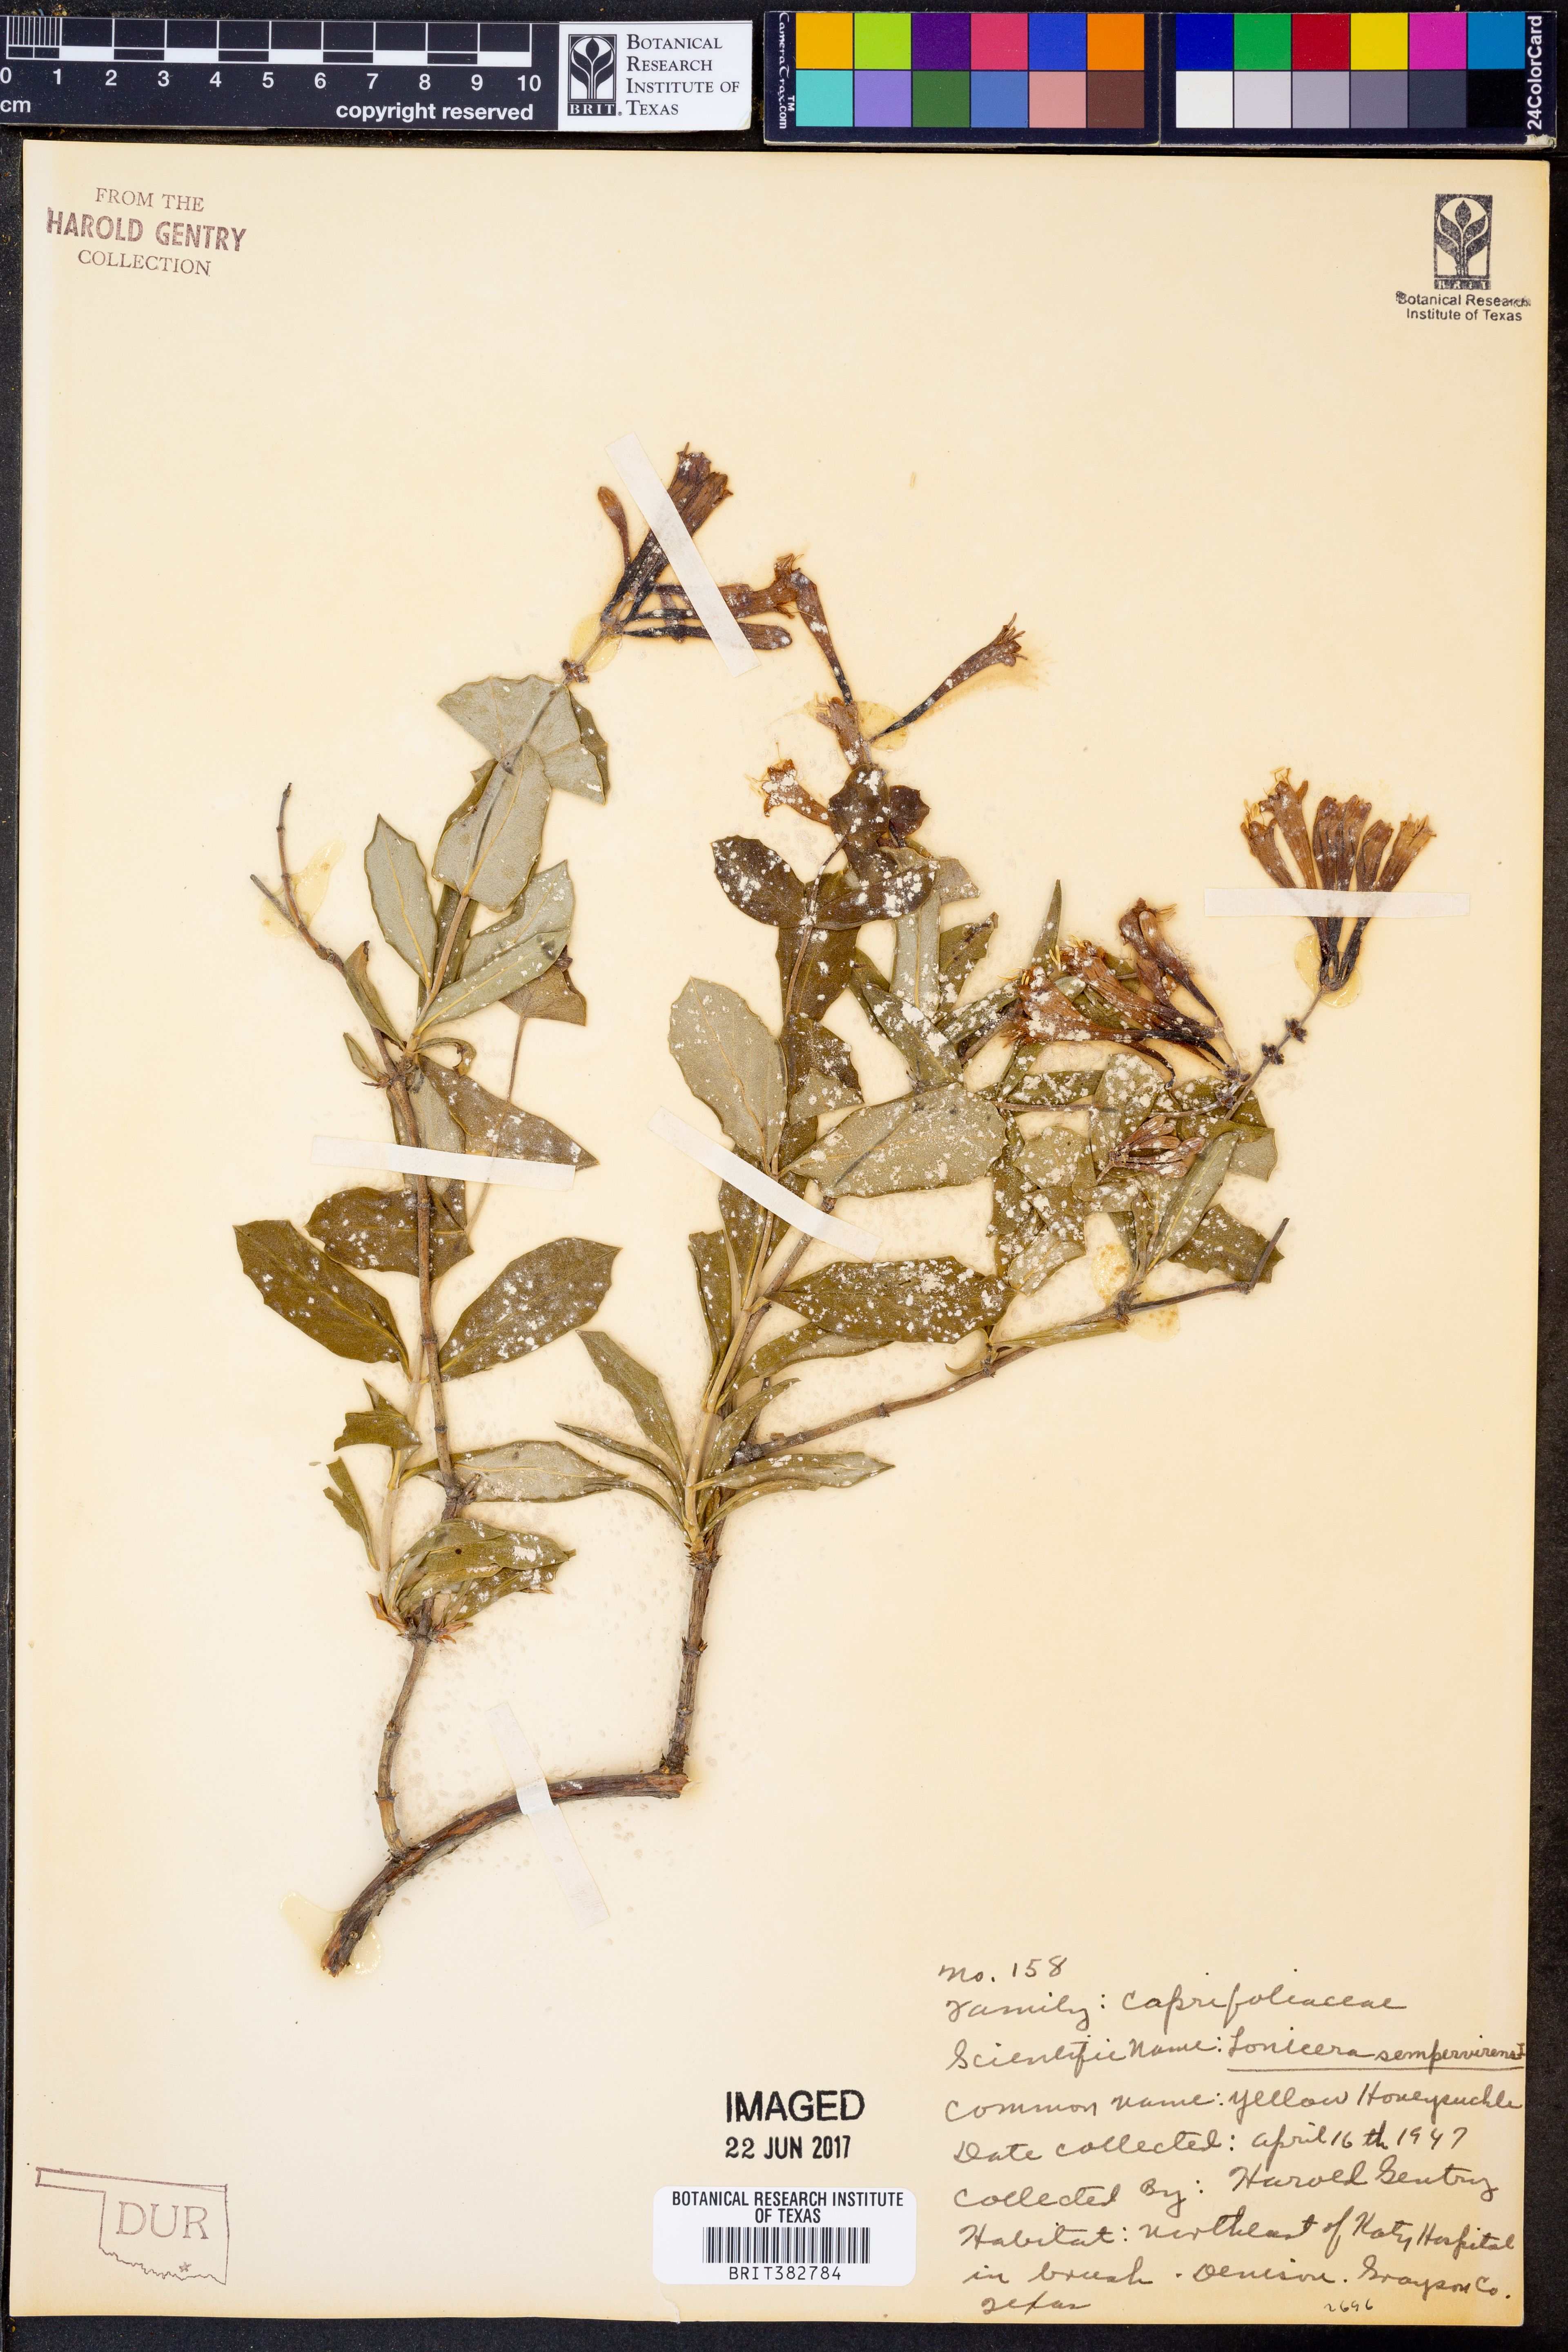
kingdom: Plantae
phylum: Tracheophyta
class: Magnoliopsida
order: Dipsacales
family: Caprifoliaceae
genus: Lonicera
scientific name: Lonicera sempervirens
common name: Coral honeysuckle
